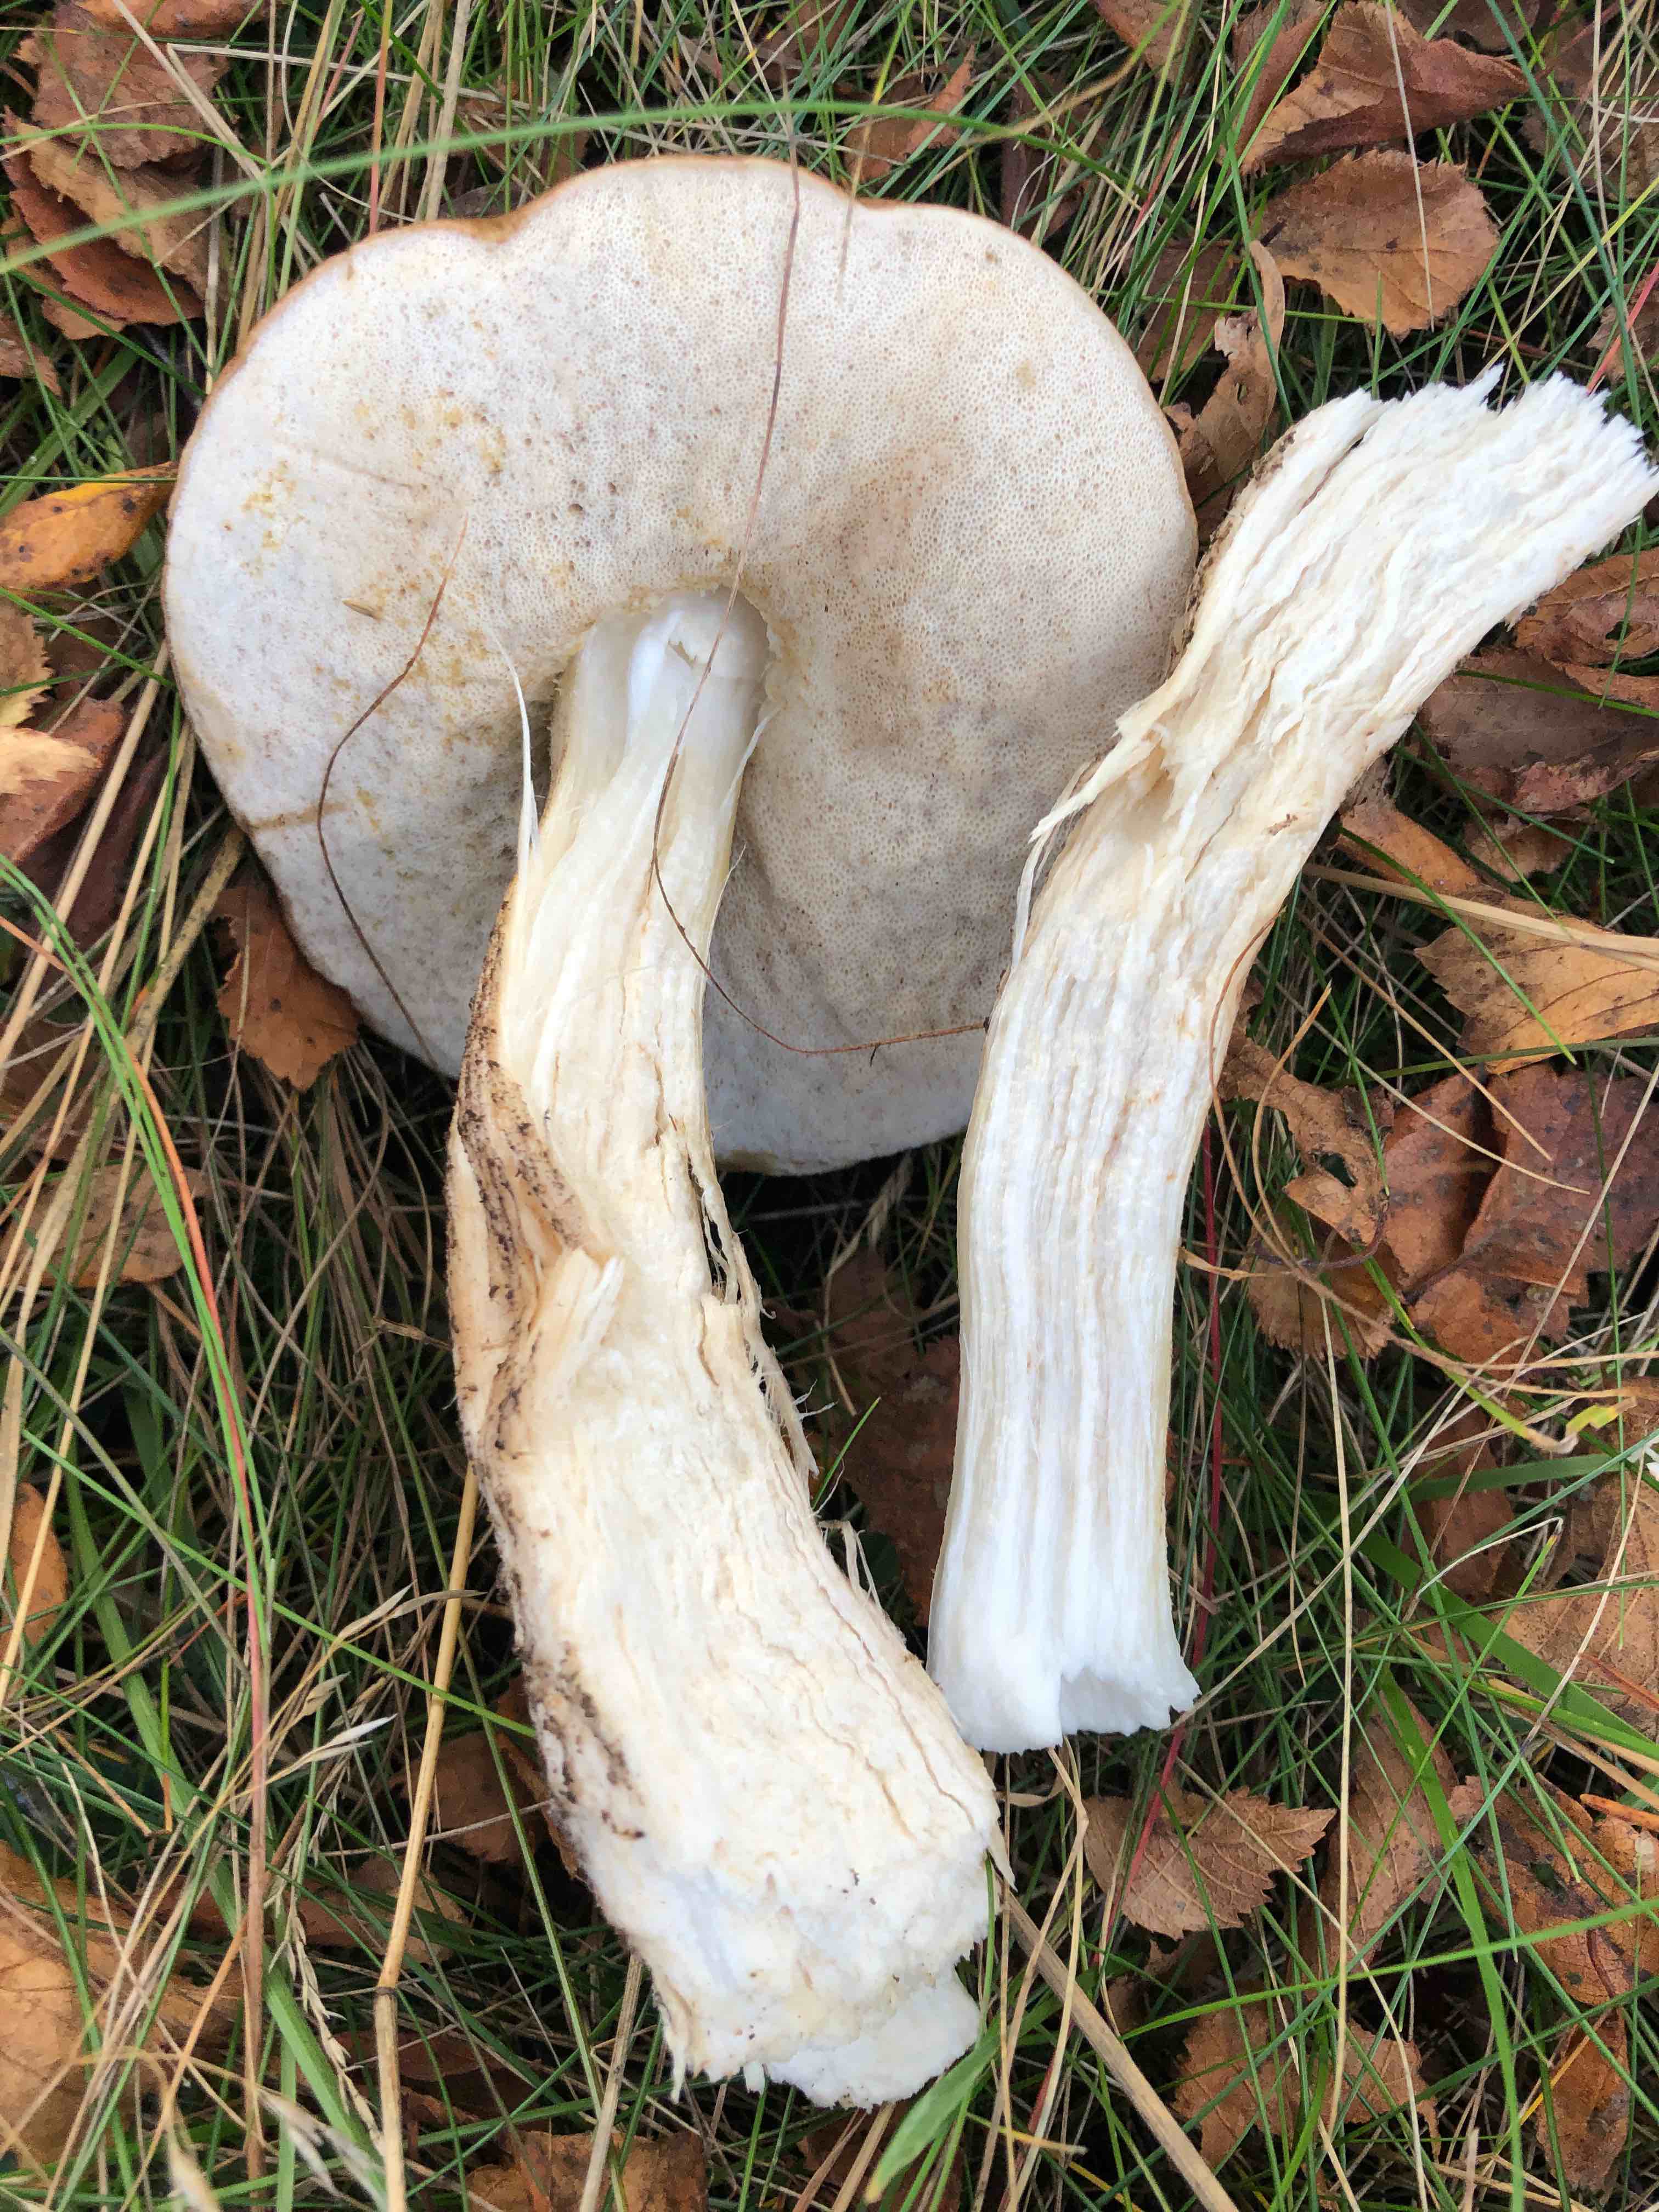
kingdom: Fungi
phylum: Basidiomycota
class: Agaricomycetes
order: Boletales
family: Boletaceae
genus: Leccinum
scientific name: Leccinum scabrum
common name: brun skælrørhat
